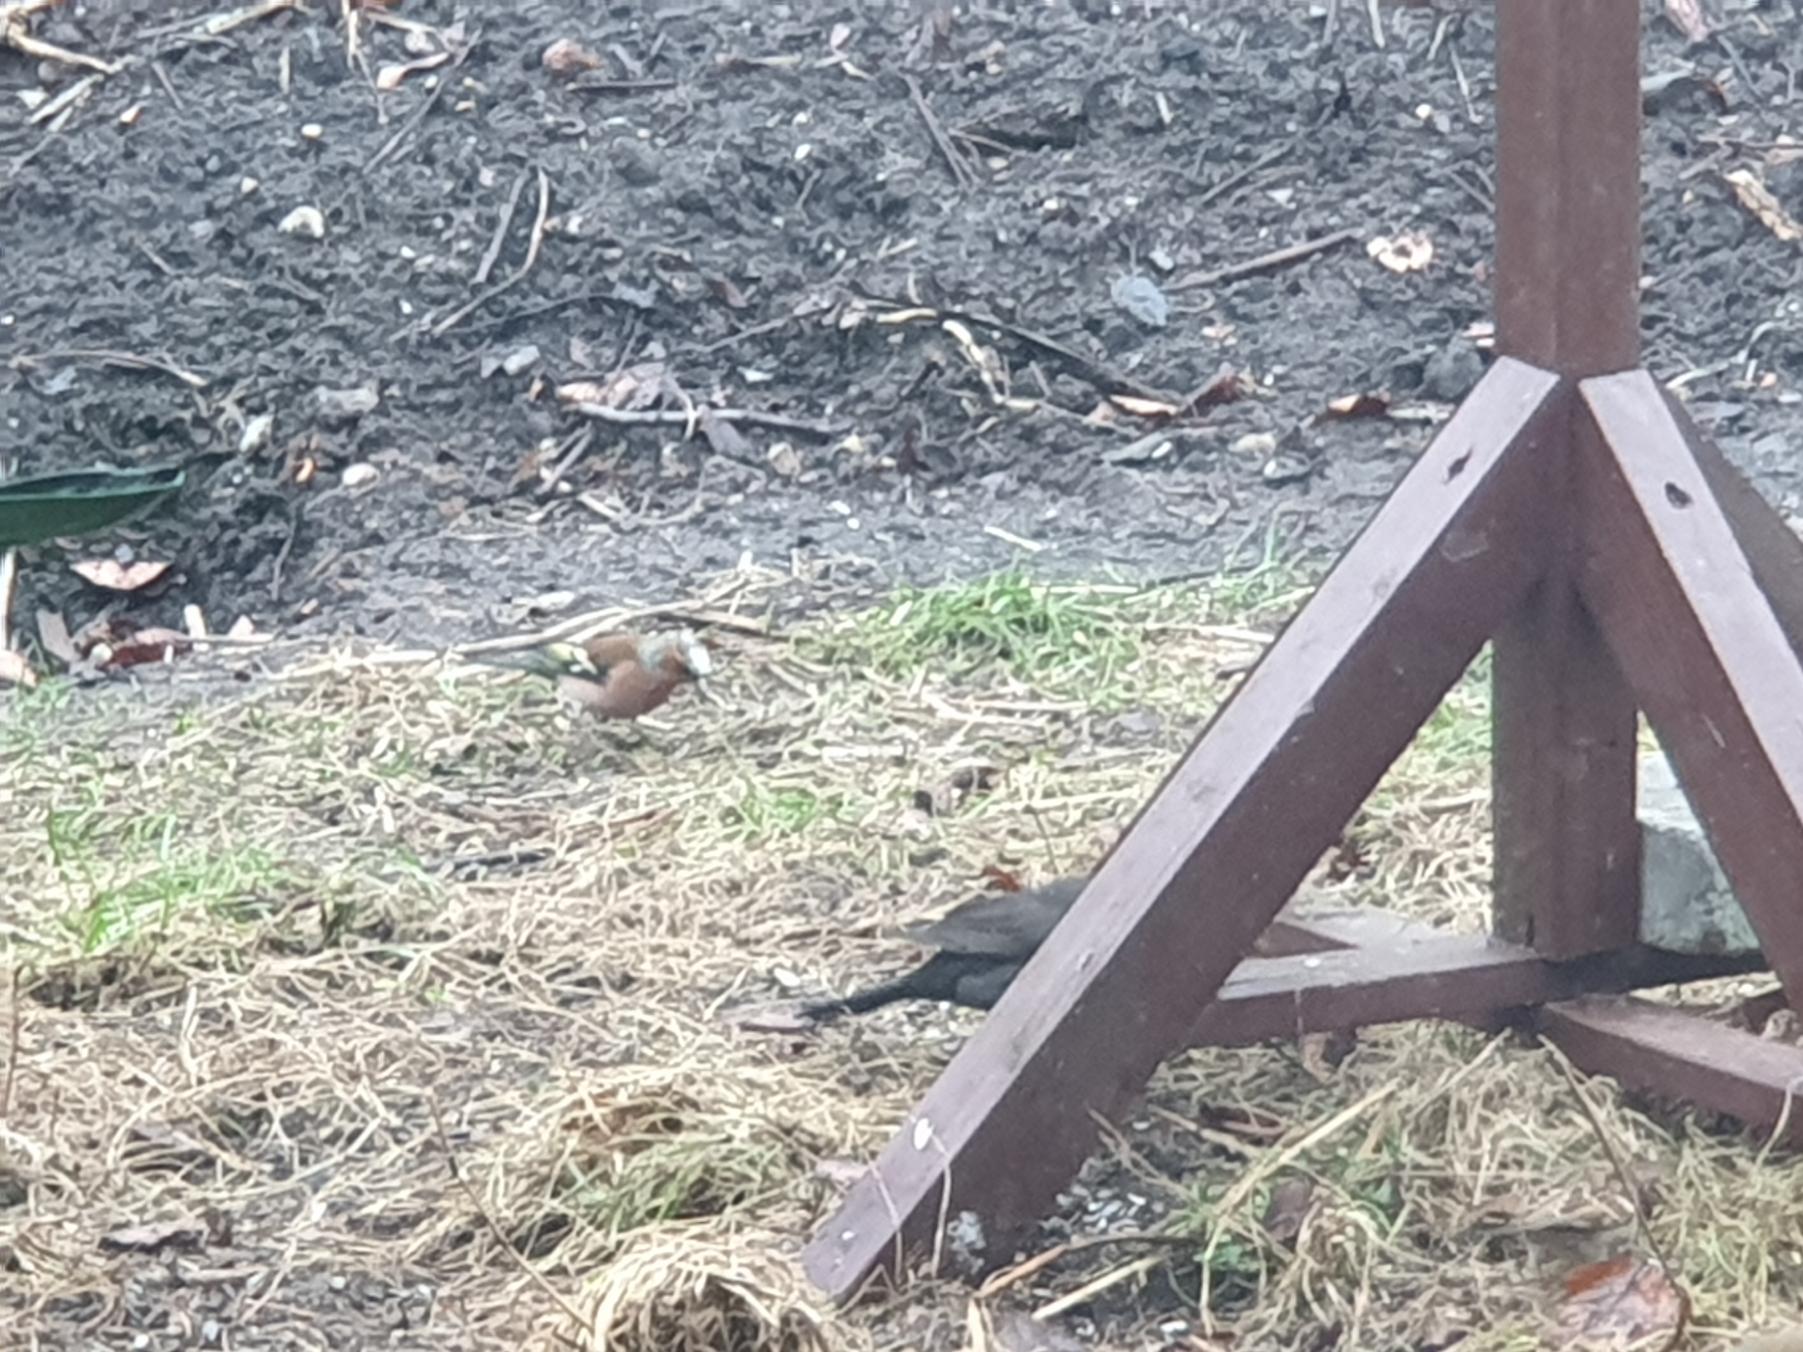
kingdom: Animalia
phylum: Chordata
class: Aves
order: Passeriformes
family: Fringillidae
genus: Fringilla
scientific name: Fringilla coelebs
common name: Bogfinke
